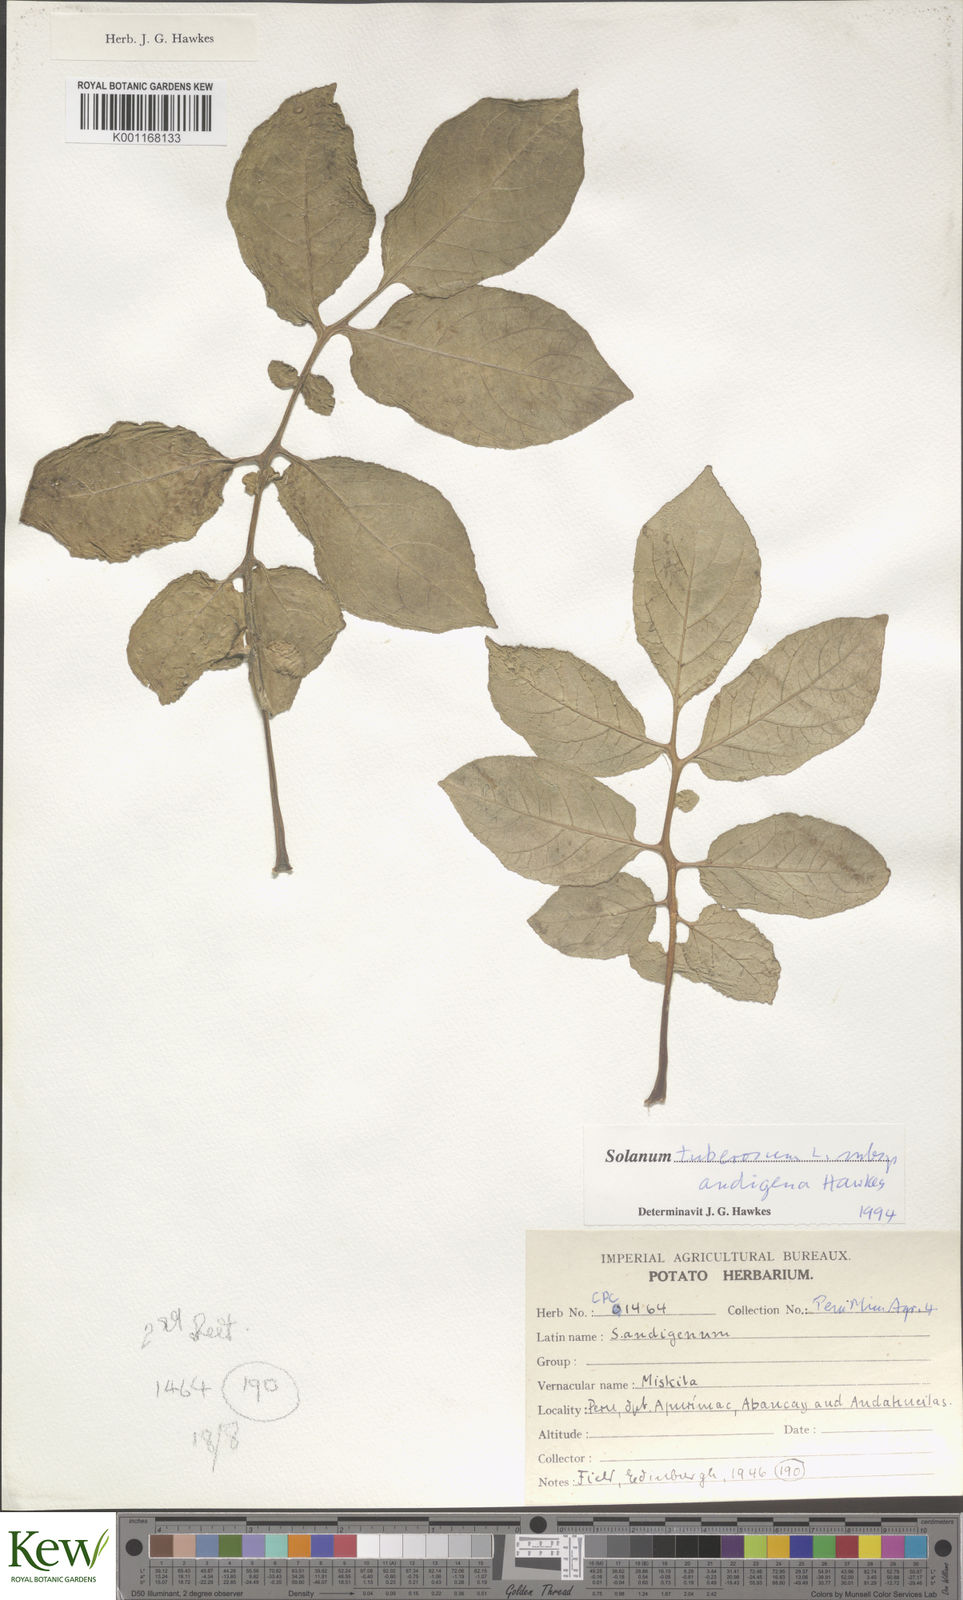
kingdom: Plantae
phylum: Tracheophyta
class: Magnoliopsida
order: Solanales
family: Solanaceae
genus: Solanum
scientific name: Solanum tuberosum
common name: Potato
